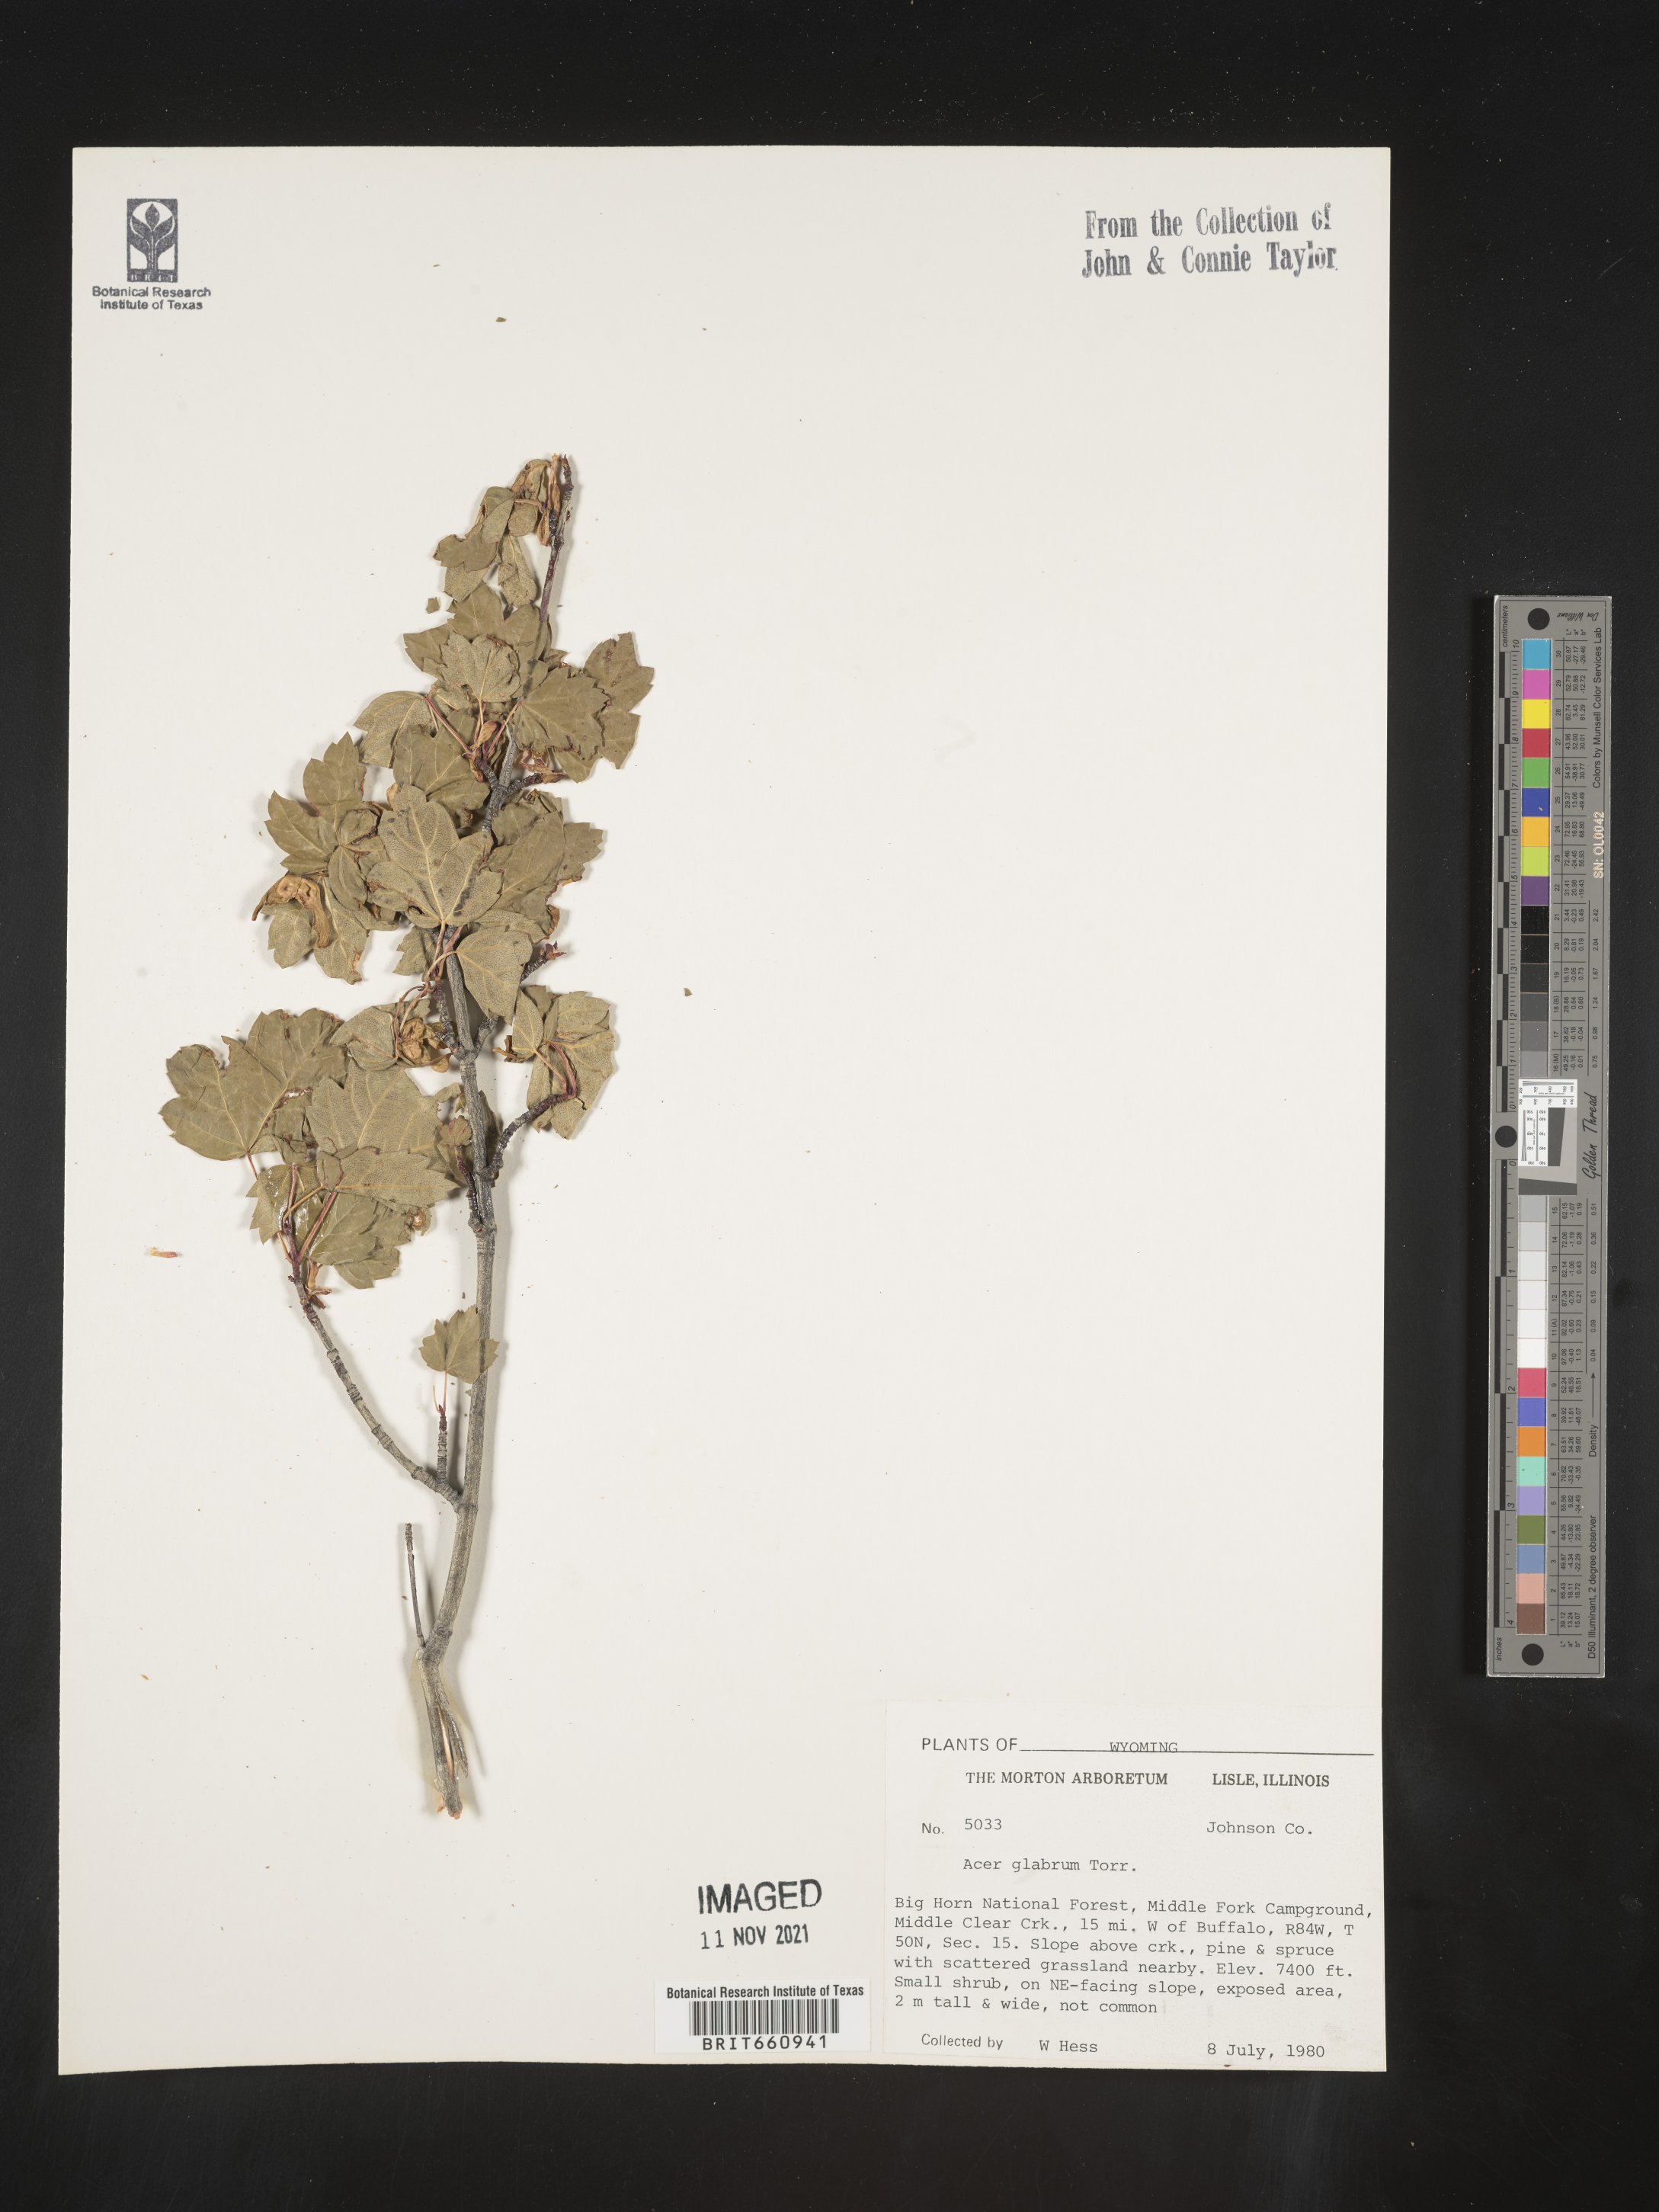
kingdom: Plantae
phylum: Tracheophyta
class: Magnoliopsida
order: Sapindales
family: Sapindaceae
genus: Acer
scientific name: Acer glabrum
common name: Rocky mountain maple
